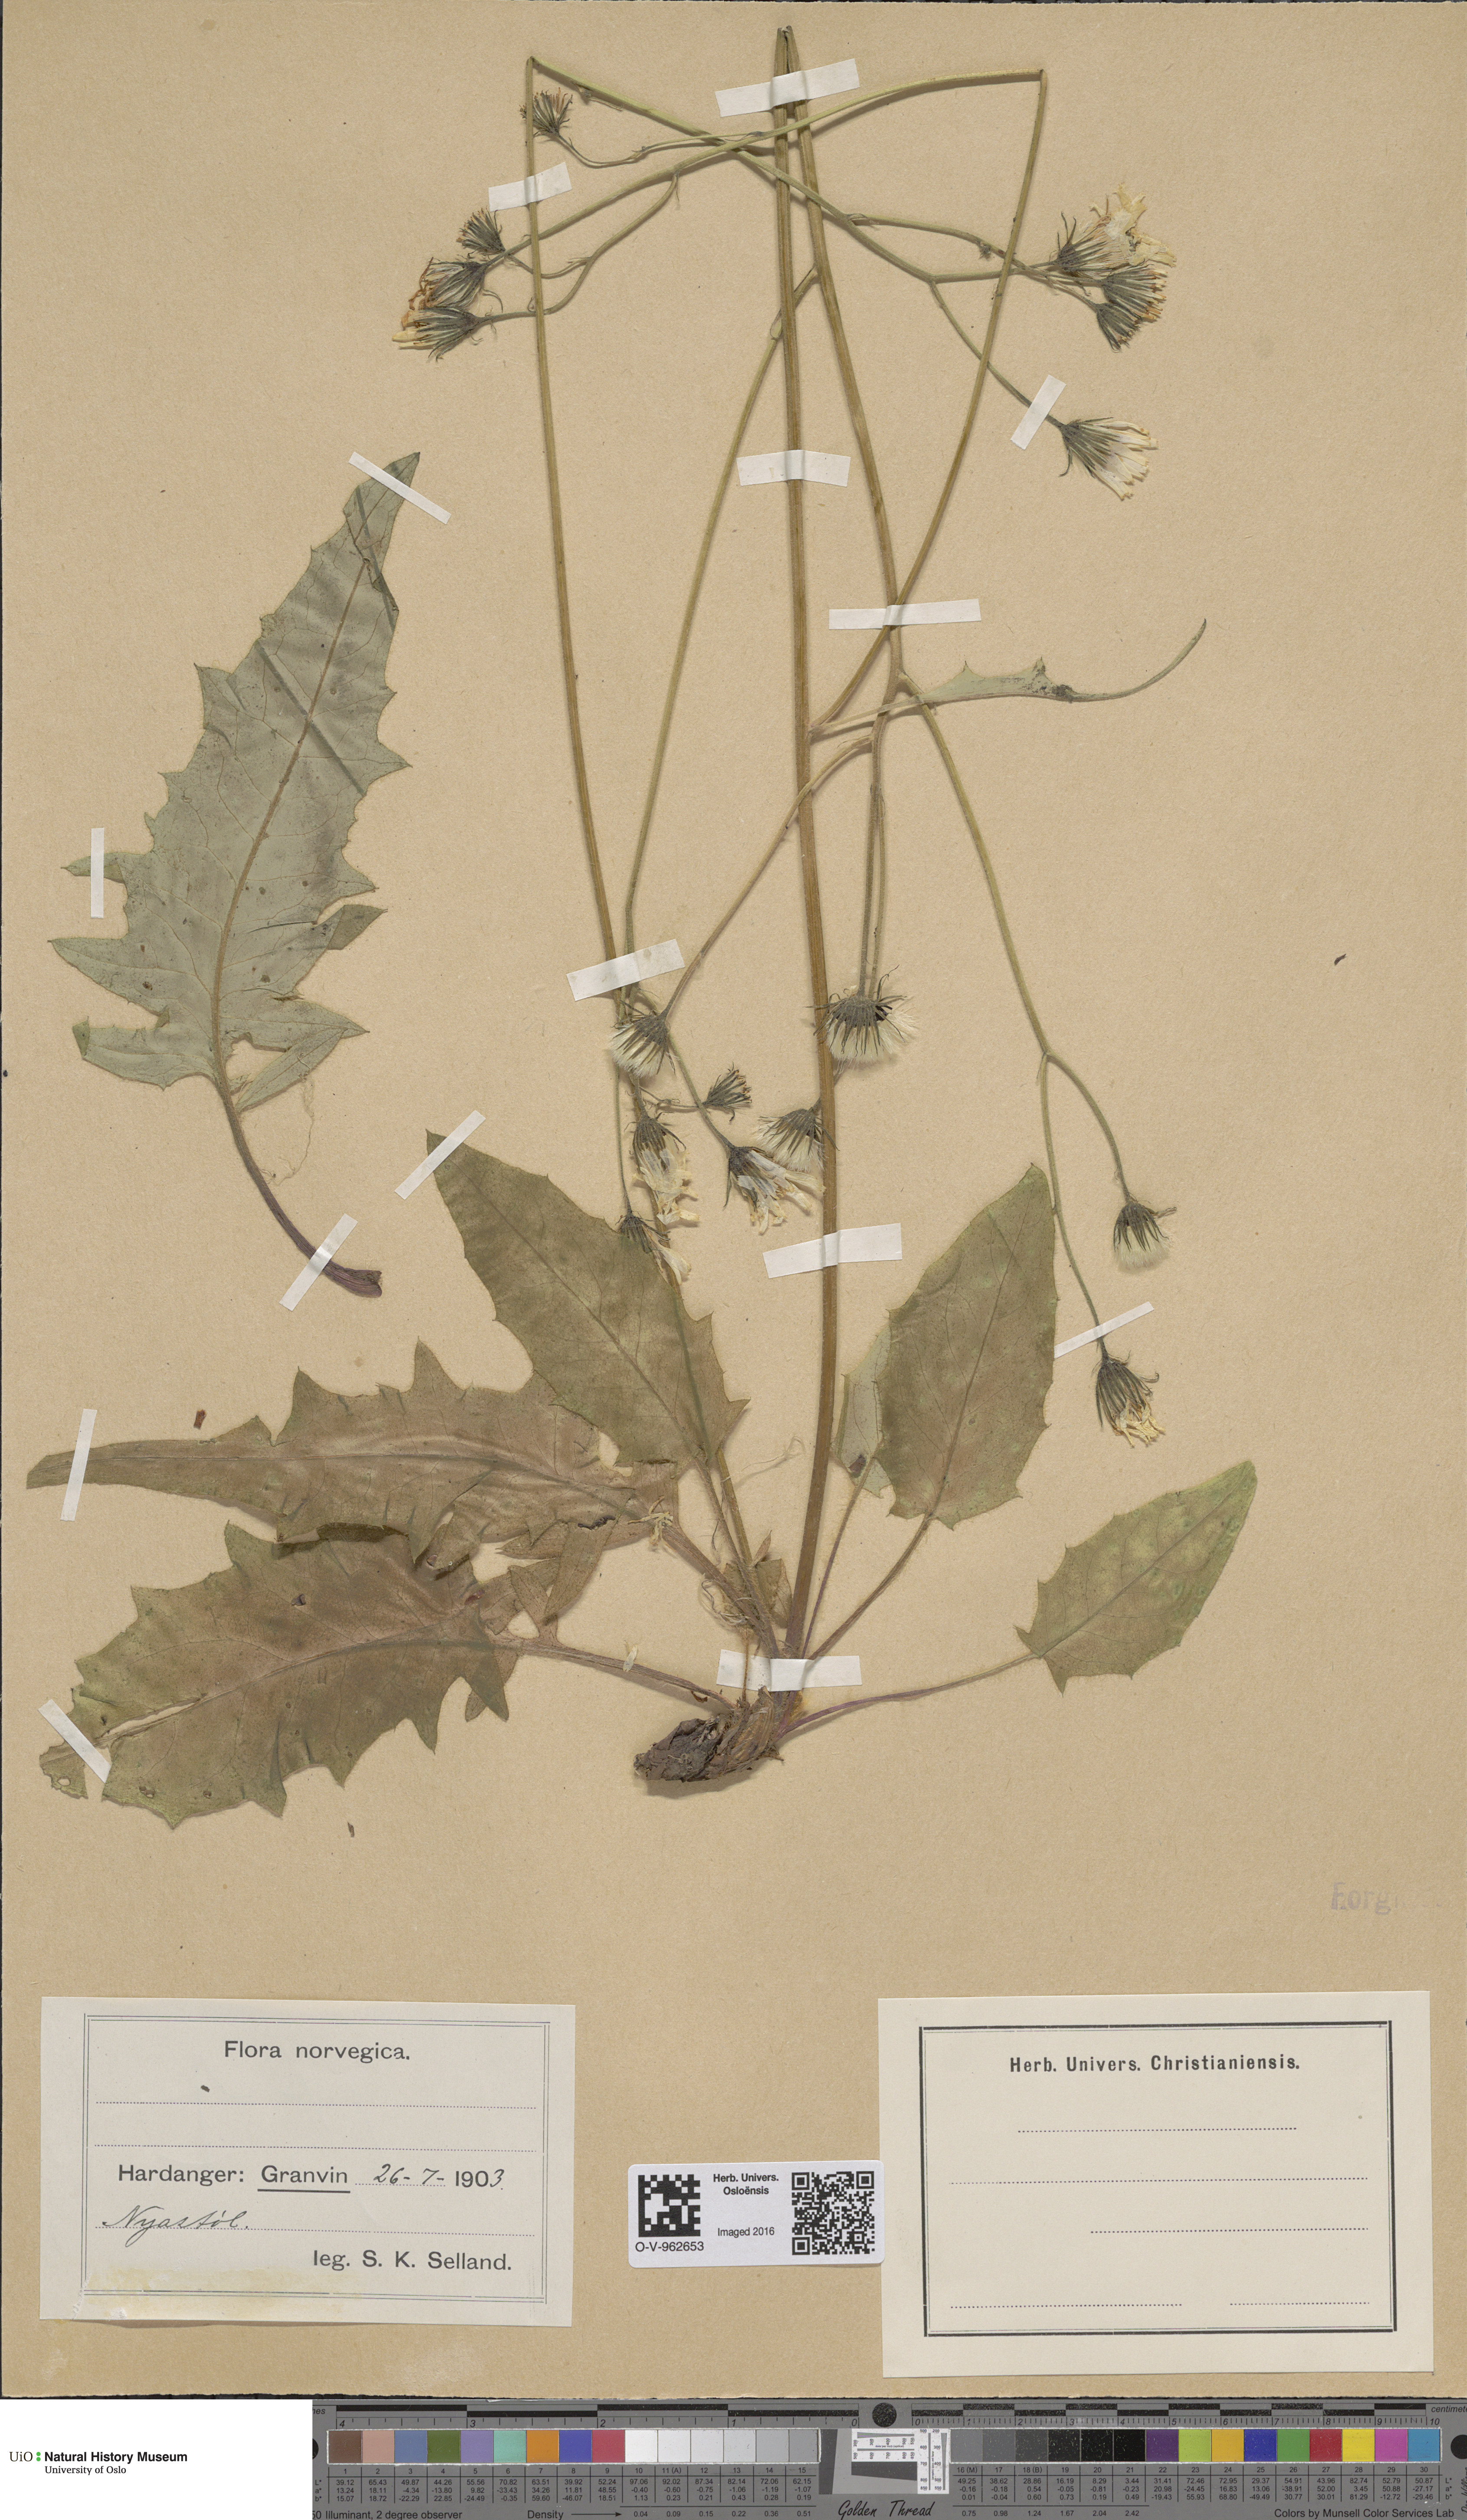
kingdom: Plantae
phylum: Tracheophyta
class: Magnoliopsida
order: Asterales
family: Asteraceae
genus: Hieracium
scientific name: Hieracium
